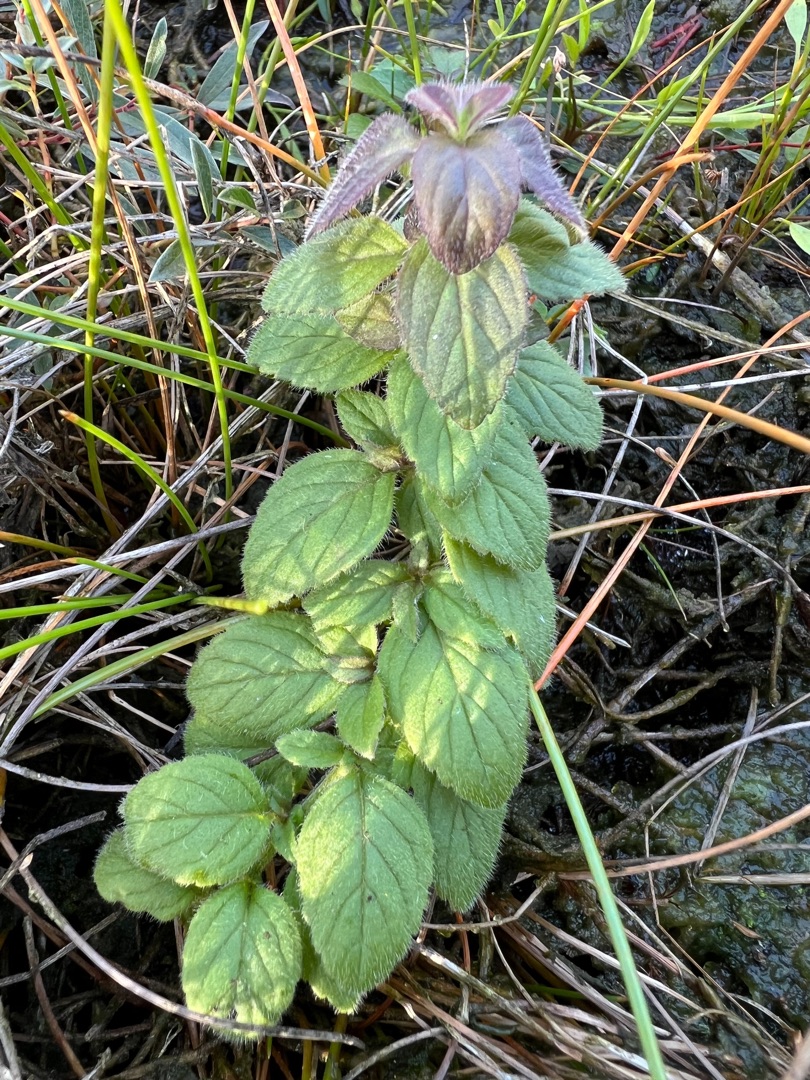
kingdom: Plantae
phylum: Tracheophyta
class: Magnoliopsida
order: Lamiales
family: Lamiaceae
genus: Mentha
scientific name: Mentha aquatica
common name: Vand-mynte
